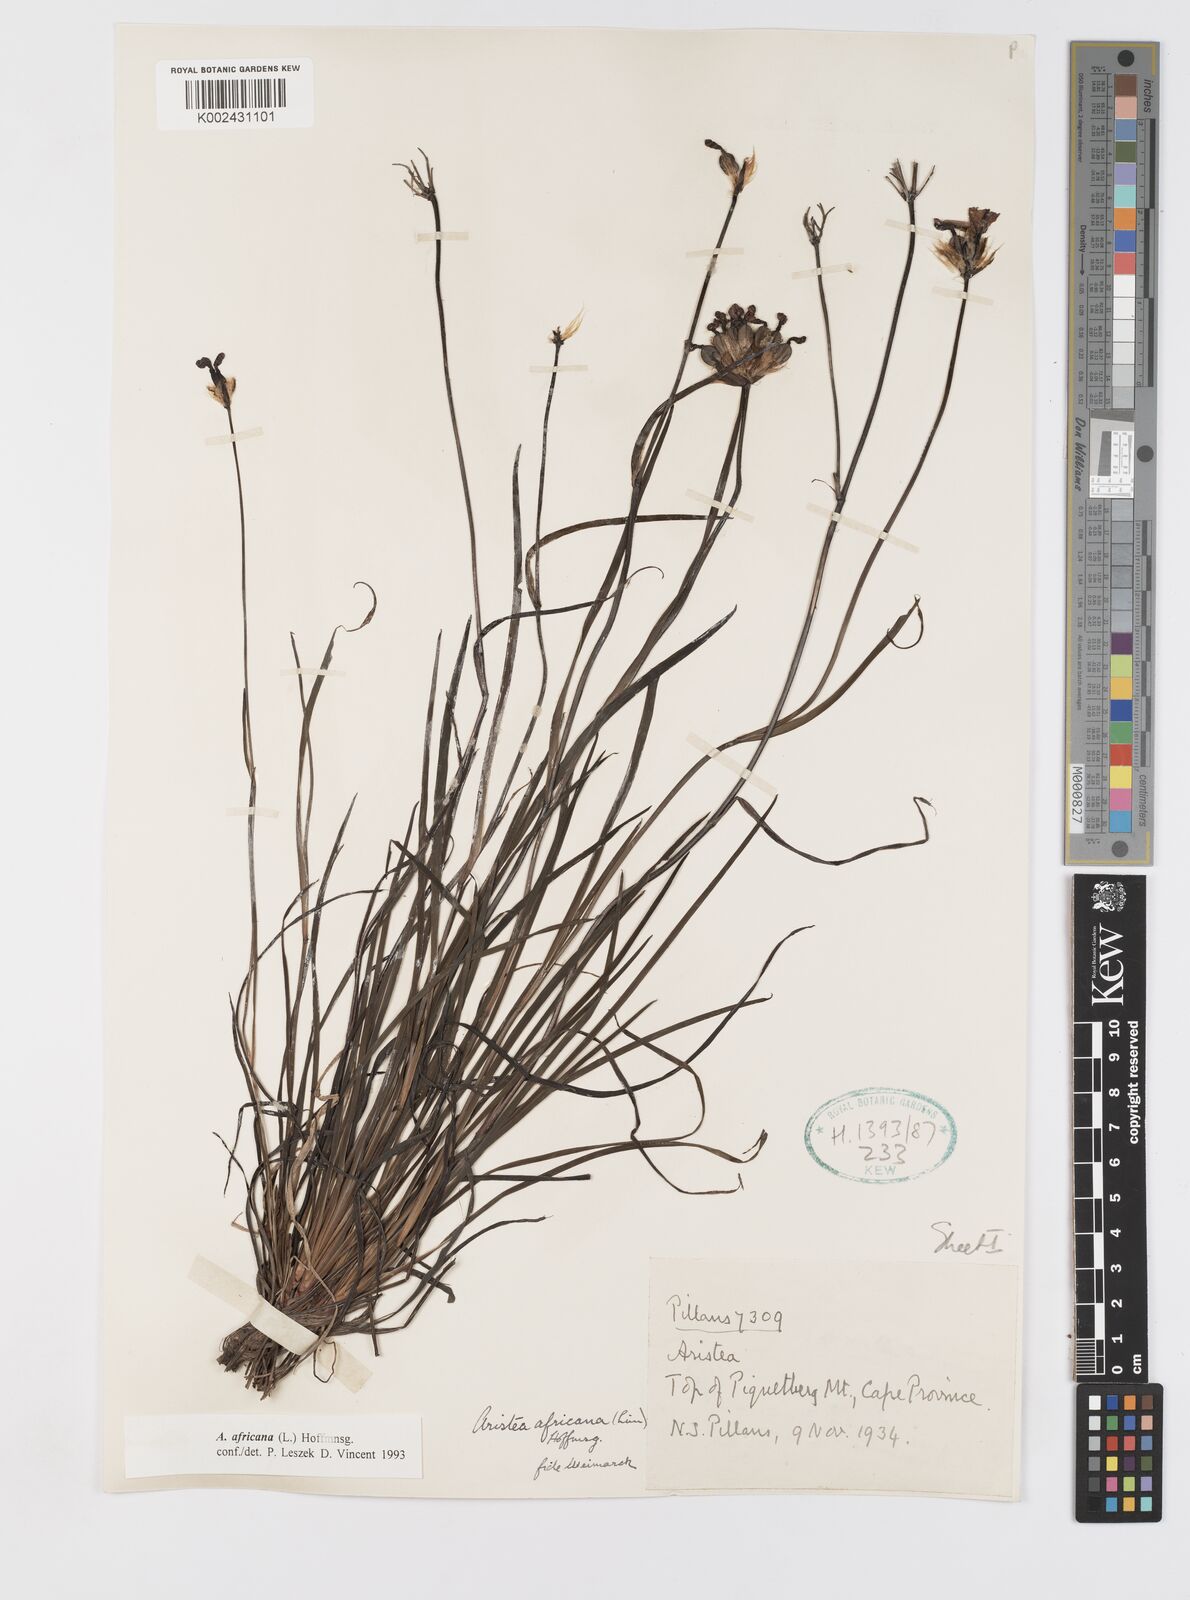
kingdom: Plantae
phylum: Tracheophyta
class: Liliopsida
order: Asparagales
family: Iridaceae
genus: Aristea
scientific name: Aristea africana
